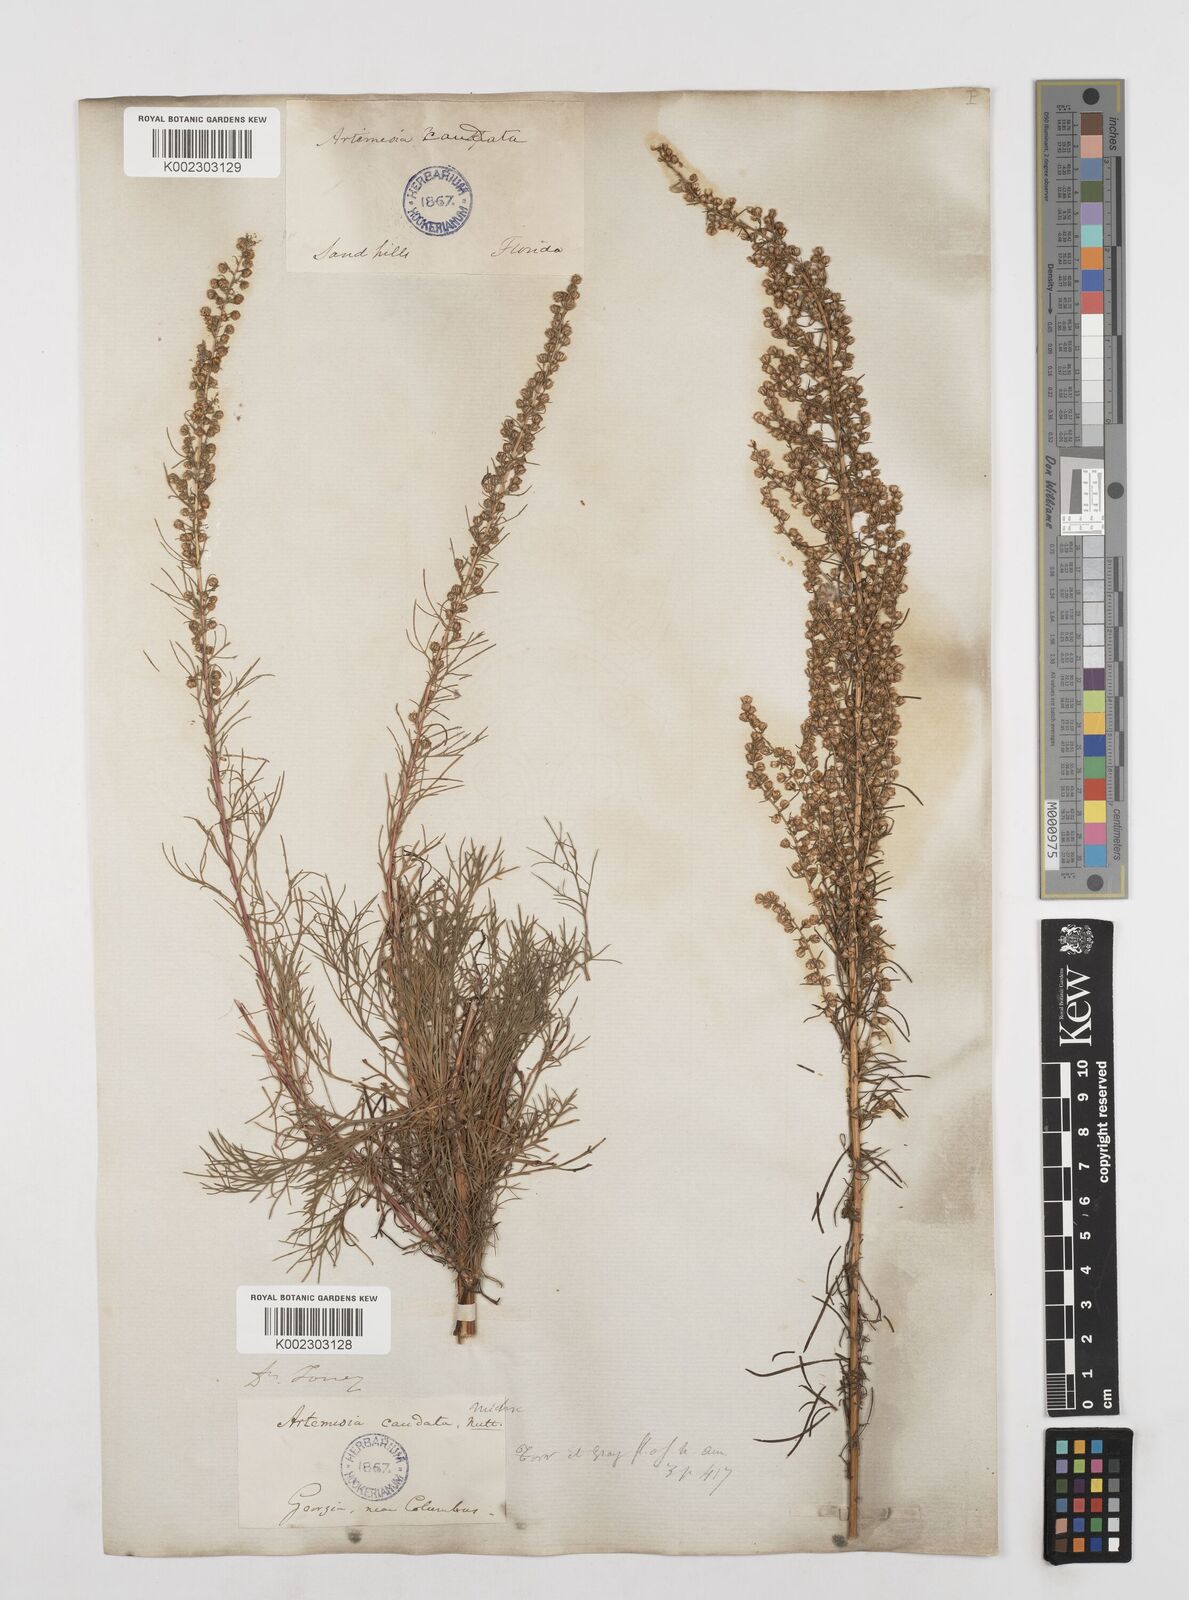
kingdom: Plantae
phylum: Tracheophyta
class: Magnoliopsida
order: Asterales
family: Asteraceae
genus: Artemisia
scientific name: Artemisia campestris
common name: Field wormwood
